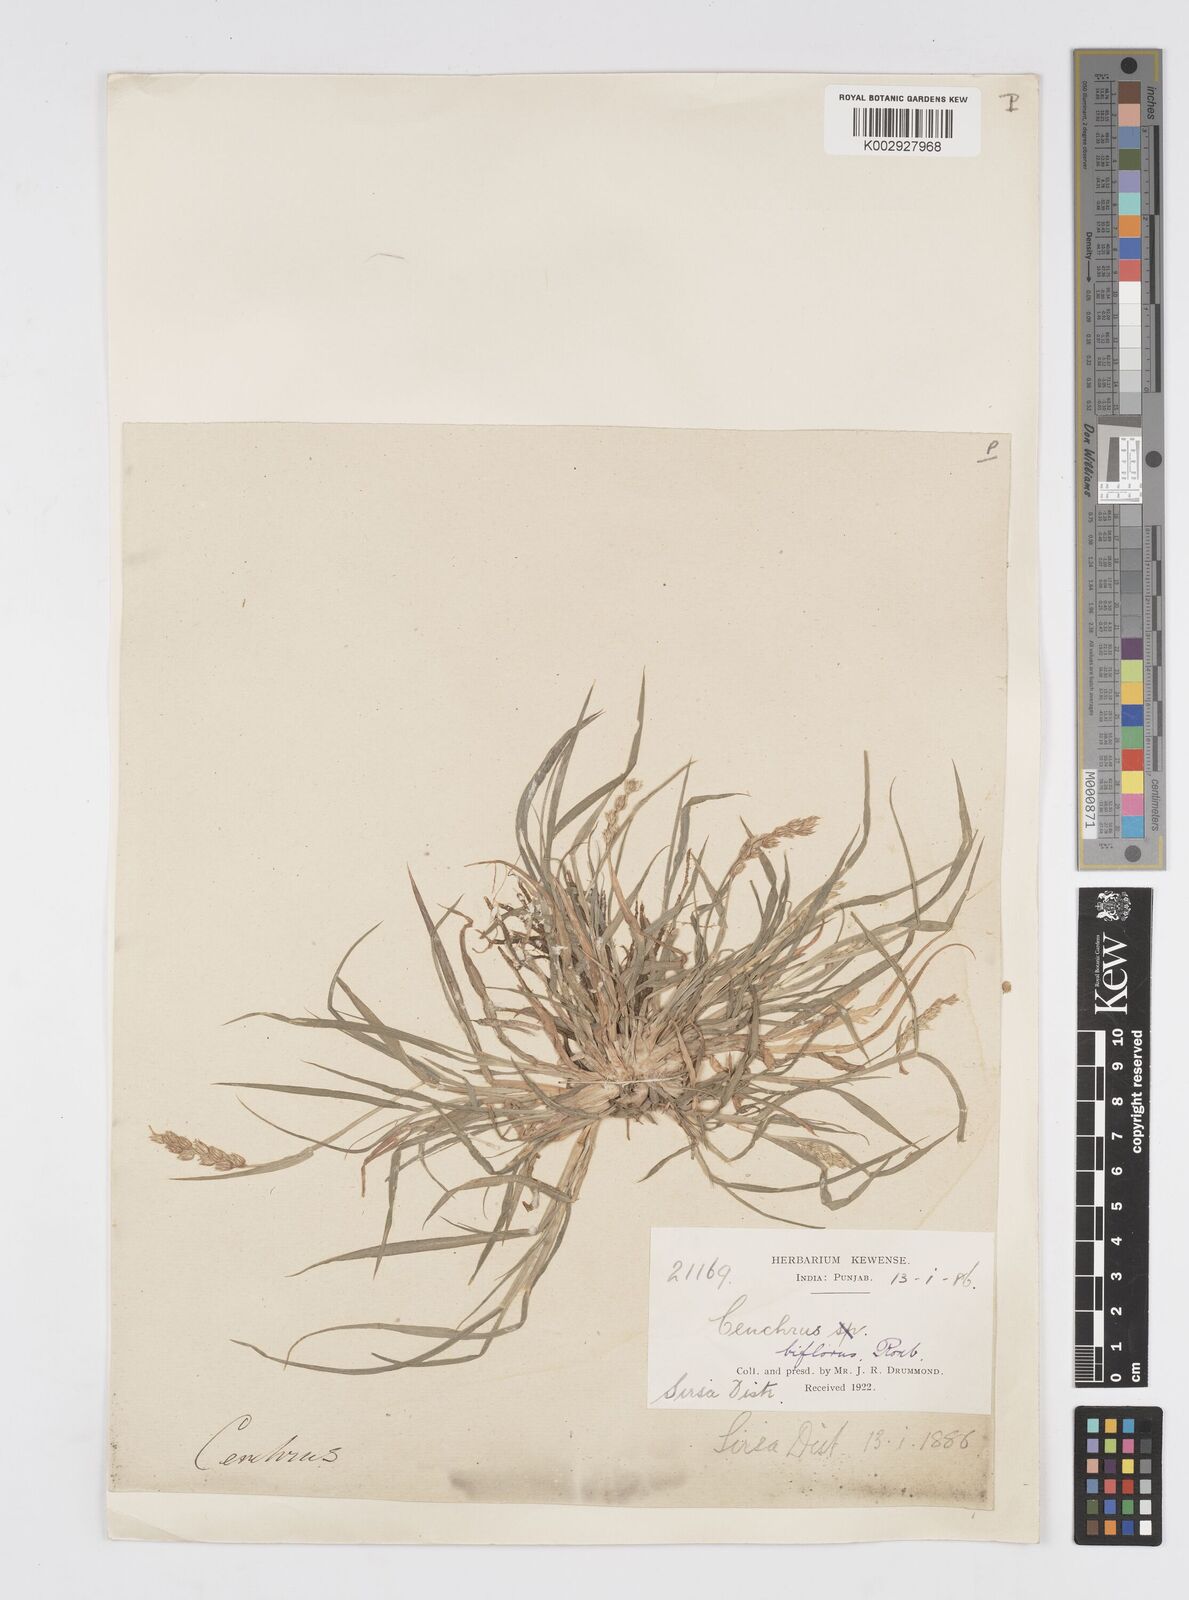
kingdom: Plantae
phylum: Tracheophyta
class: Liliopsida
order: Poales
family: Poaceae
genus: Cenchrus
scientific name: Cenchrus setigerus
